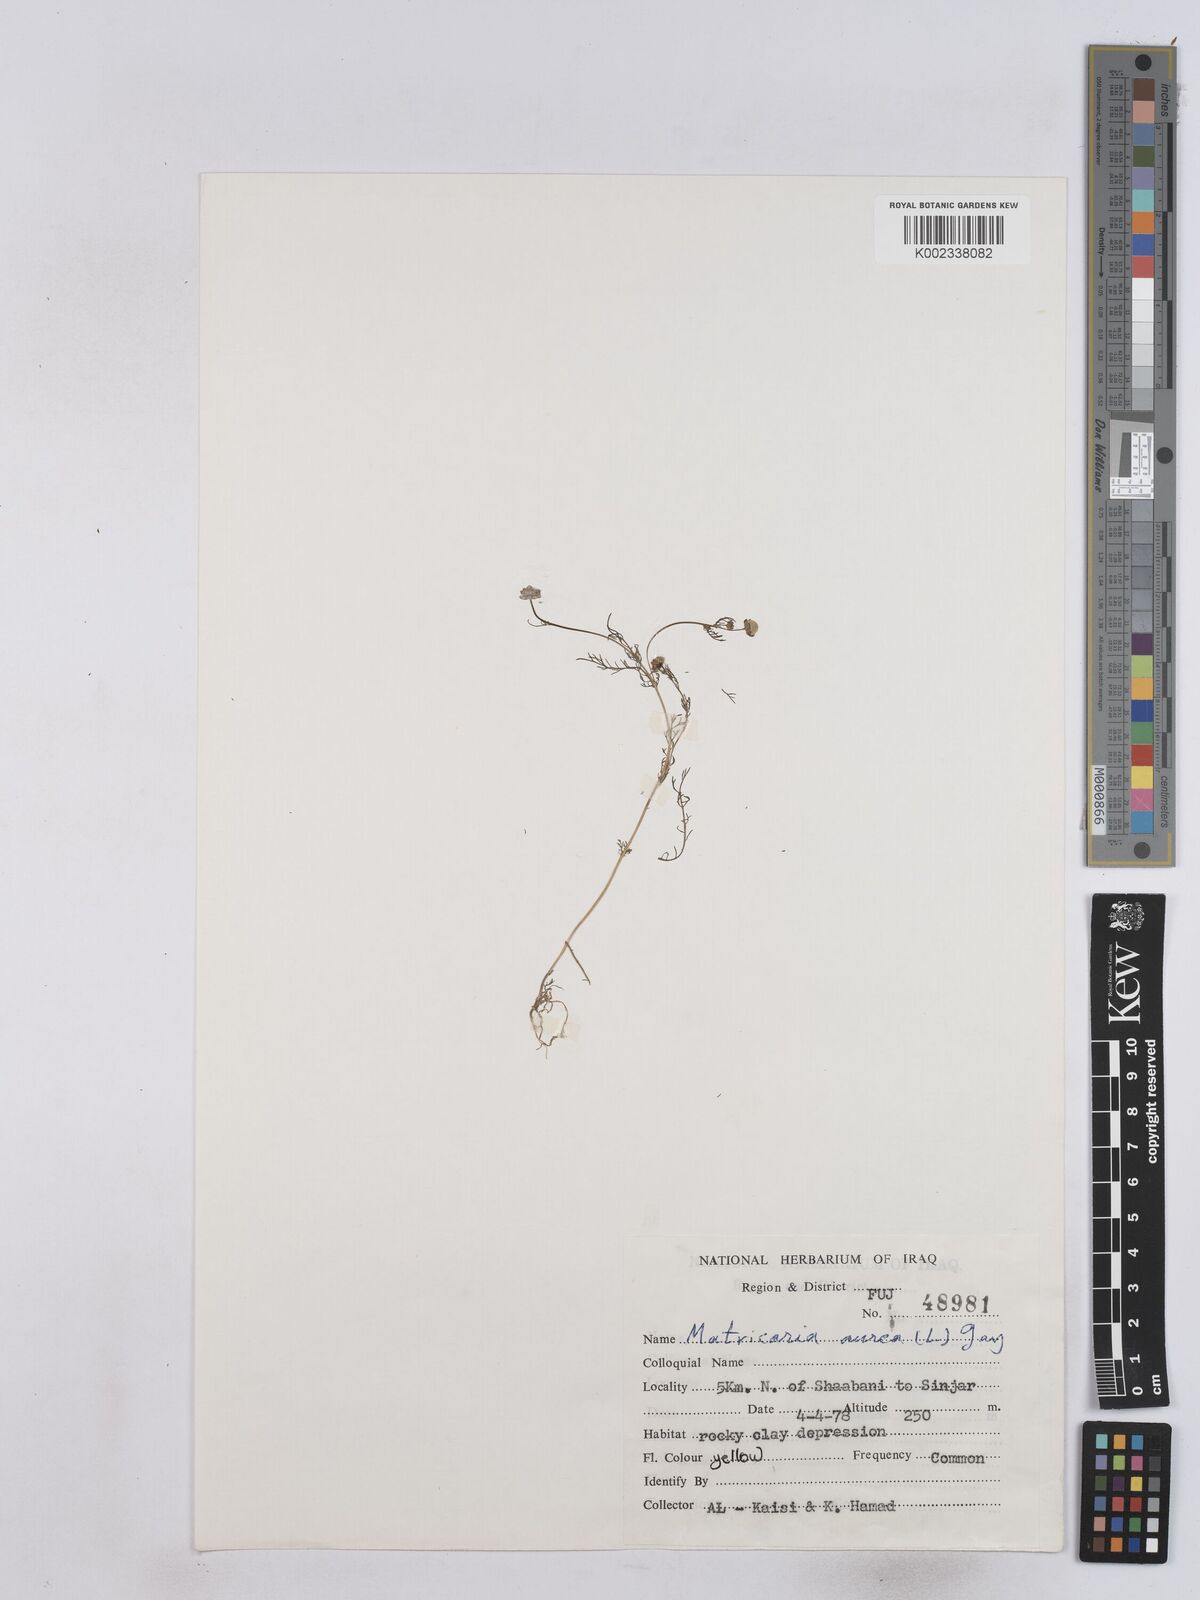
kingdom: Plantae
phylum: Tracheophyta
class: Magnoliopsida
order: Asterales
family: Asteraceae
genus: Matricaria
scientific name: Matricaria aurea
